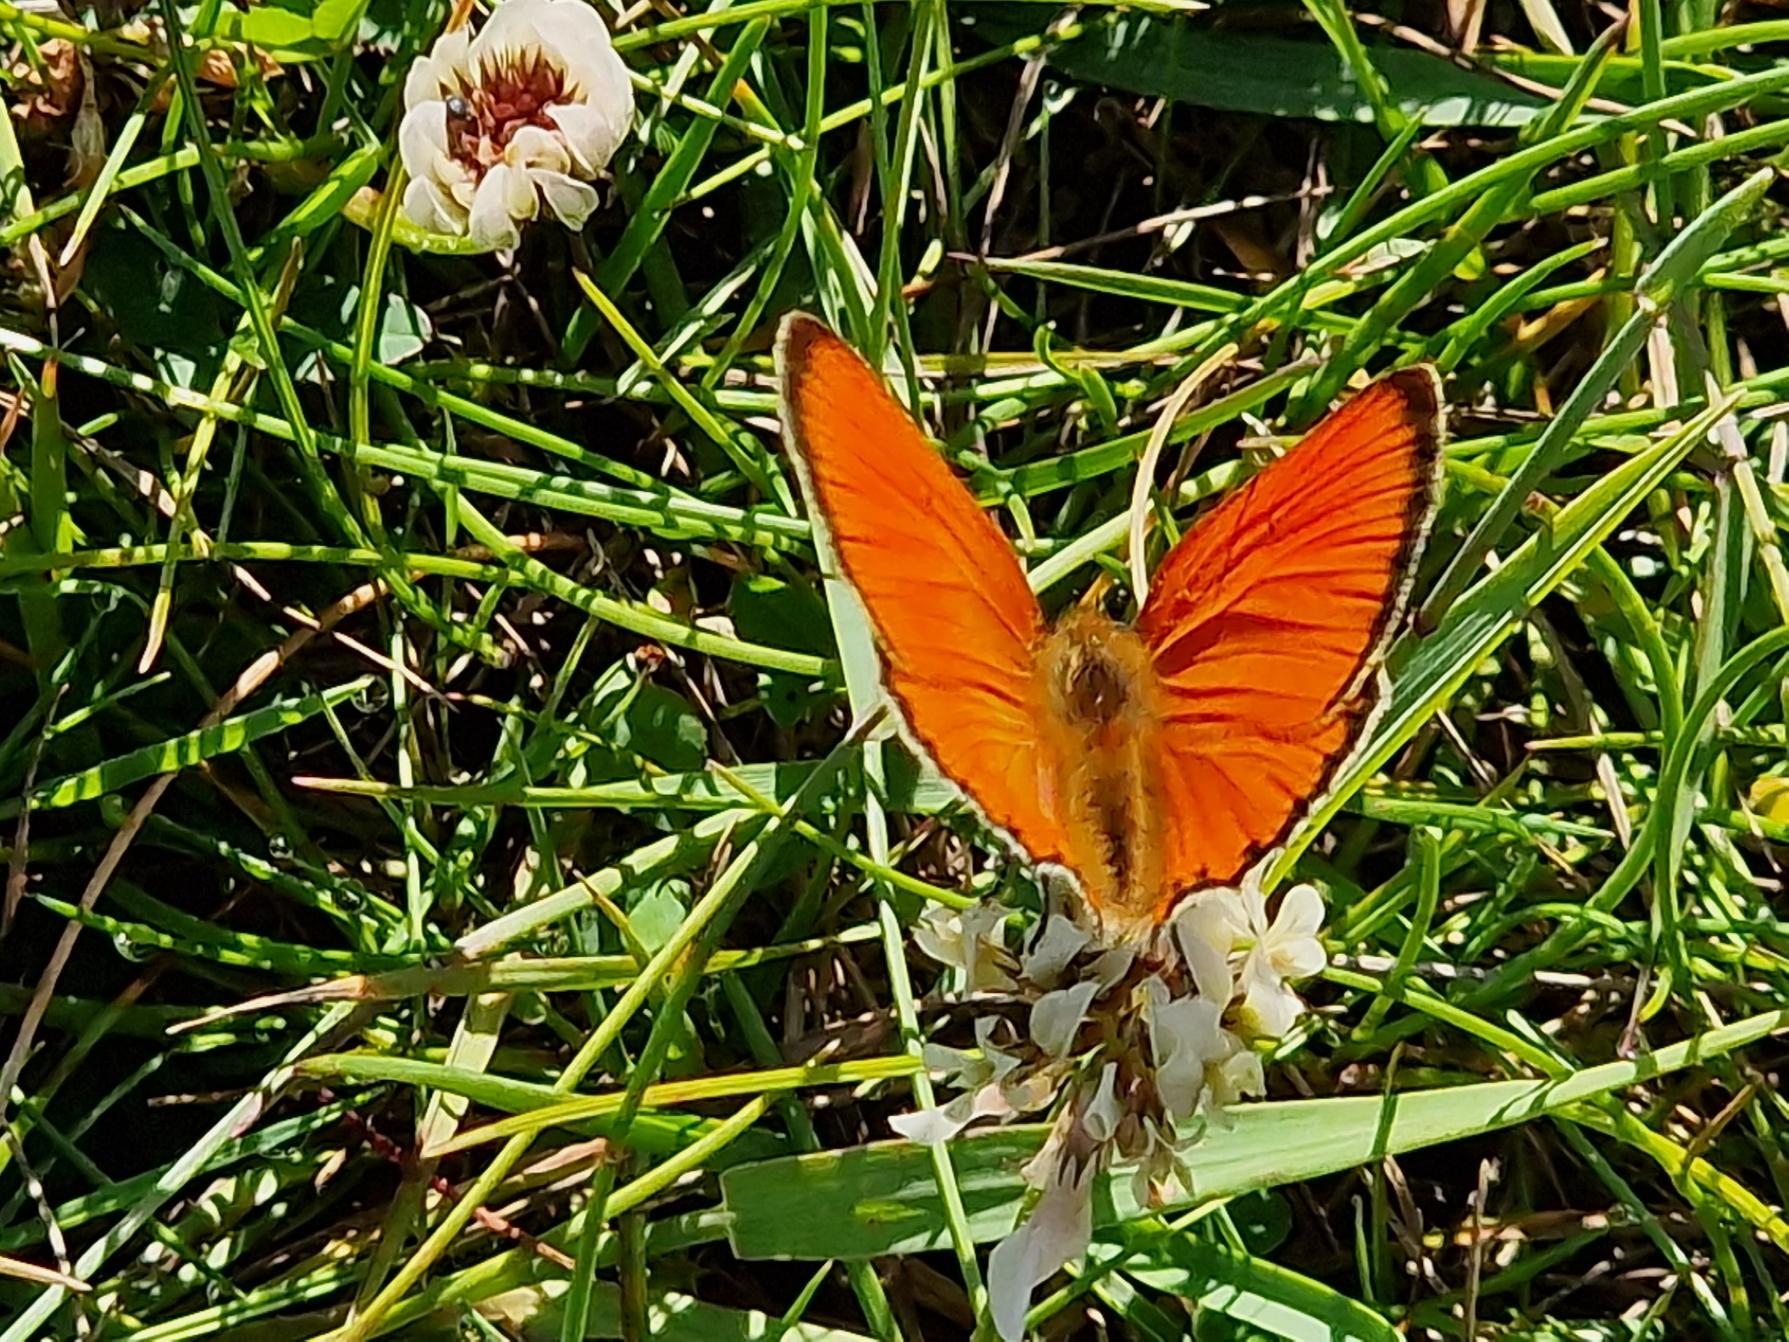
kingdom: Animalia
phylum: Arthropoda
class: Insecta
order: Lepidoptera
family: Lycaenidae
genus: Lycaena
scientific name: Lycaena virgaureae
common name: Dukatsommerfugl
